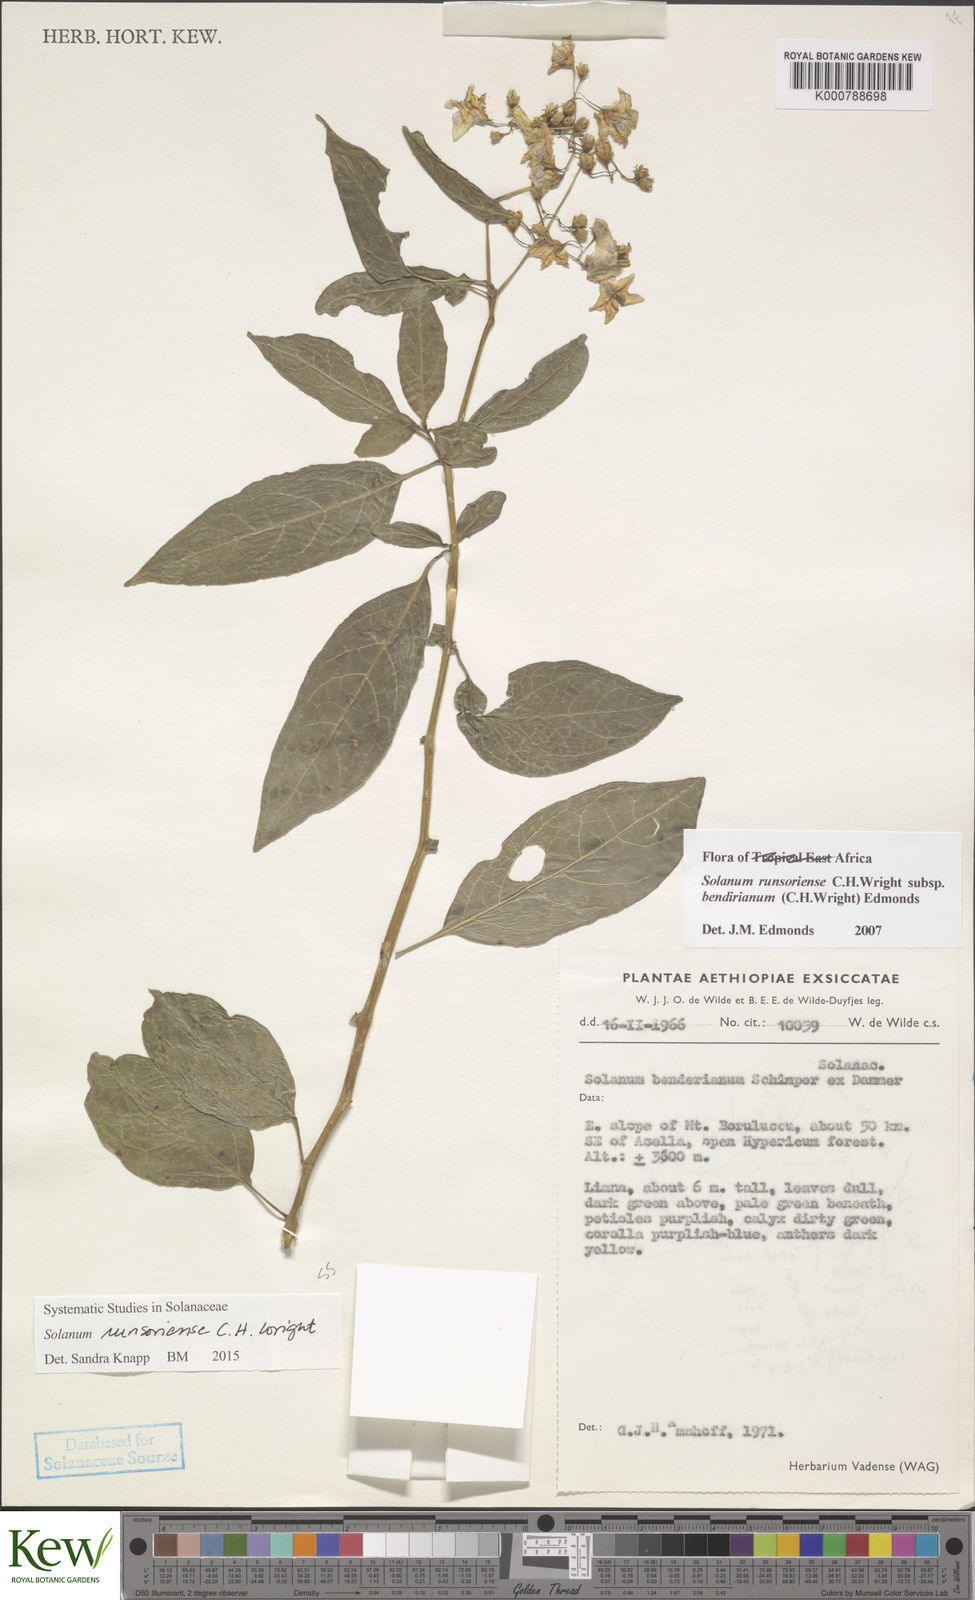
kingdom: Plantae
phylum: Tracheophyta
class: Magnoliopsida
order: Solanales
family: Solanaceae
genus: Solanum
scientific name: Solanum runsoriense
